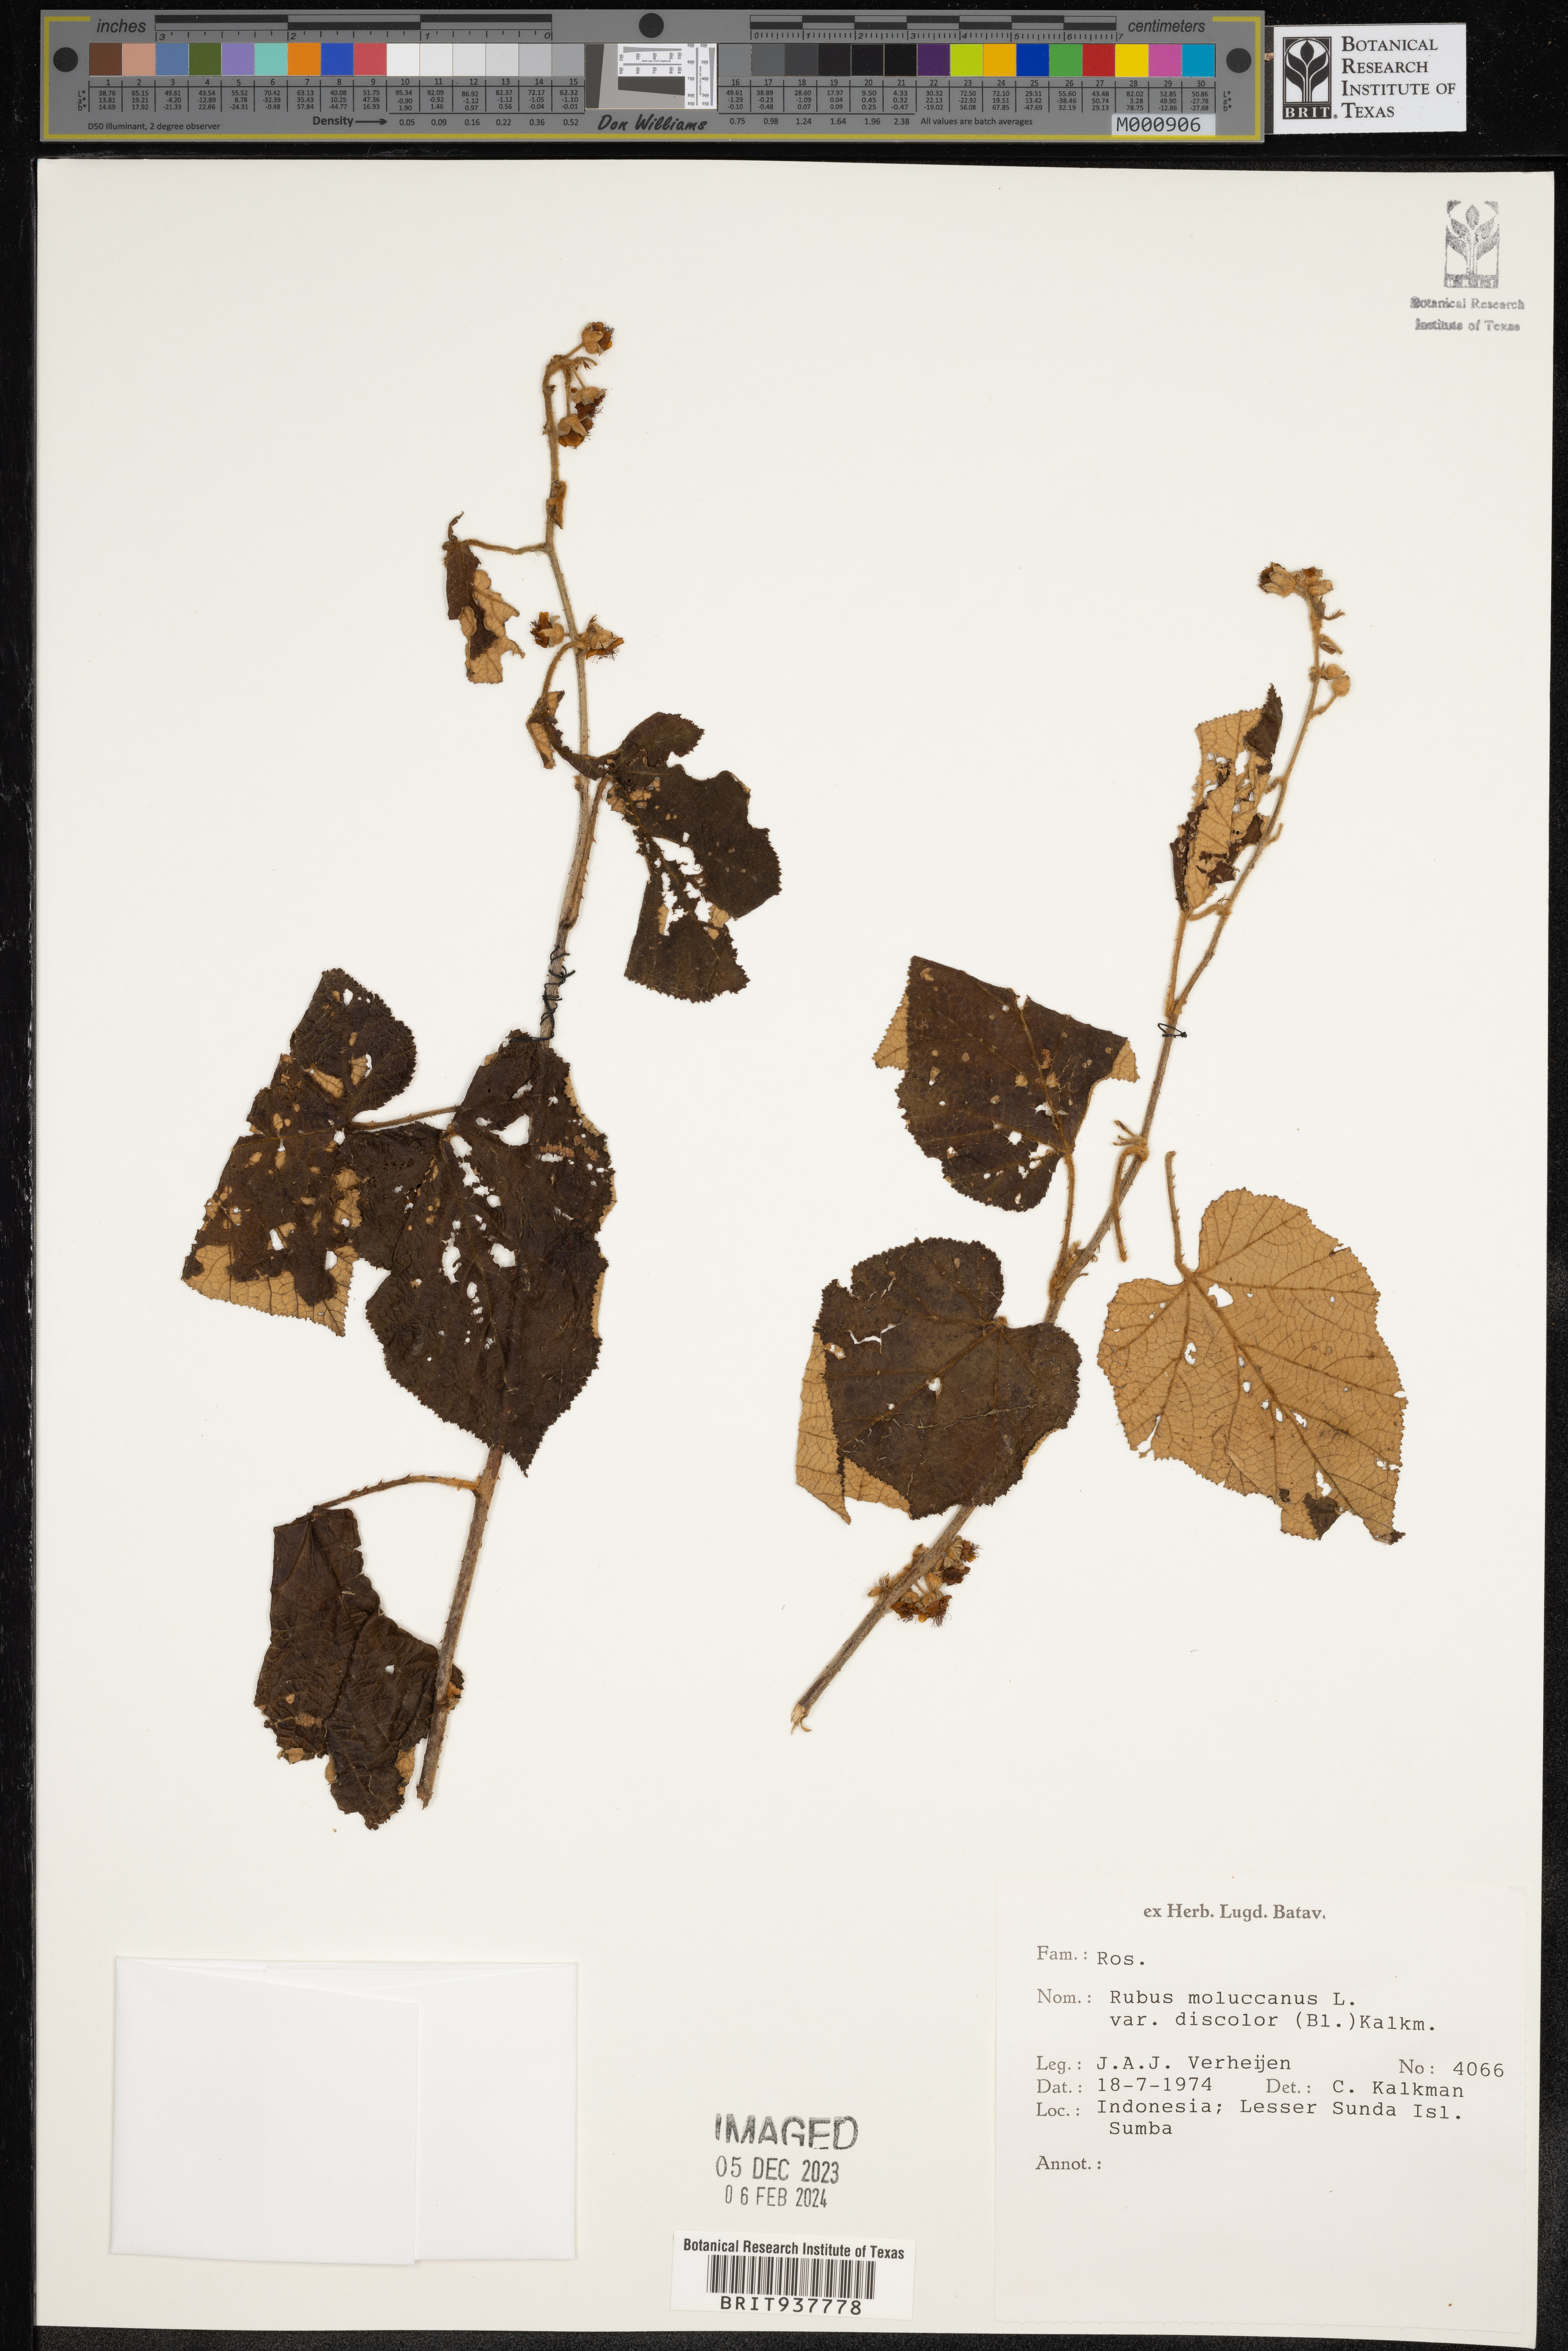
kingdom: Plantae
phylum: Tracheophyta
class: Magnoliopsida
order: Rosales
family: Rosaceae
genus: Rubus
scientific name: Rubus
